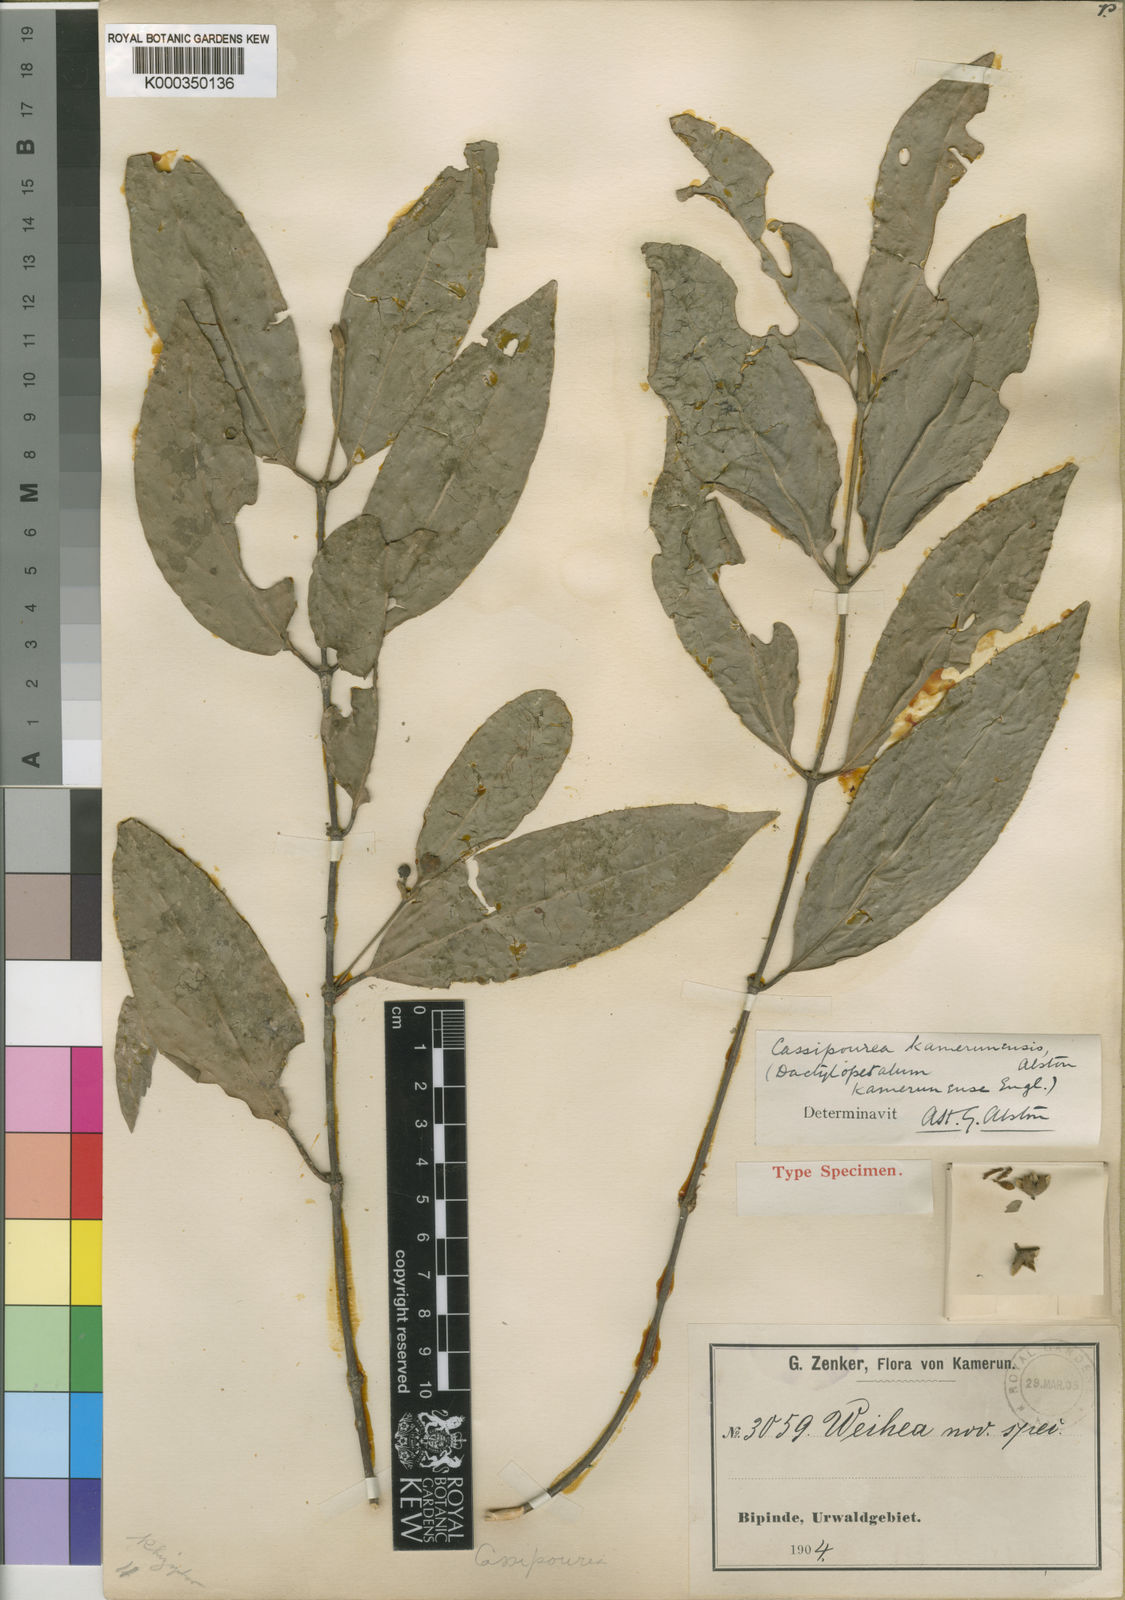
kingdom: Plantae
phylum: Tracheophyta
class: Magnoliopsida
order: Malpighiales
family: Rhizophoraceae
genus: Cassipourea
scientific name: Cassipourea schizocalyx
